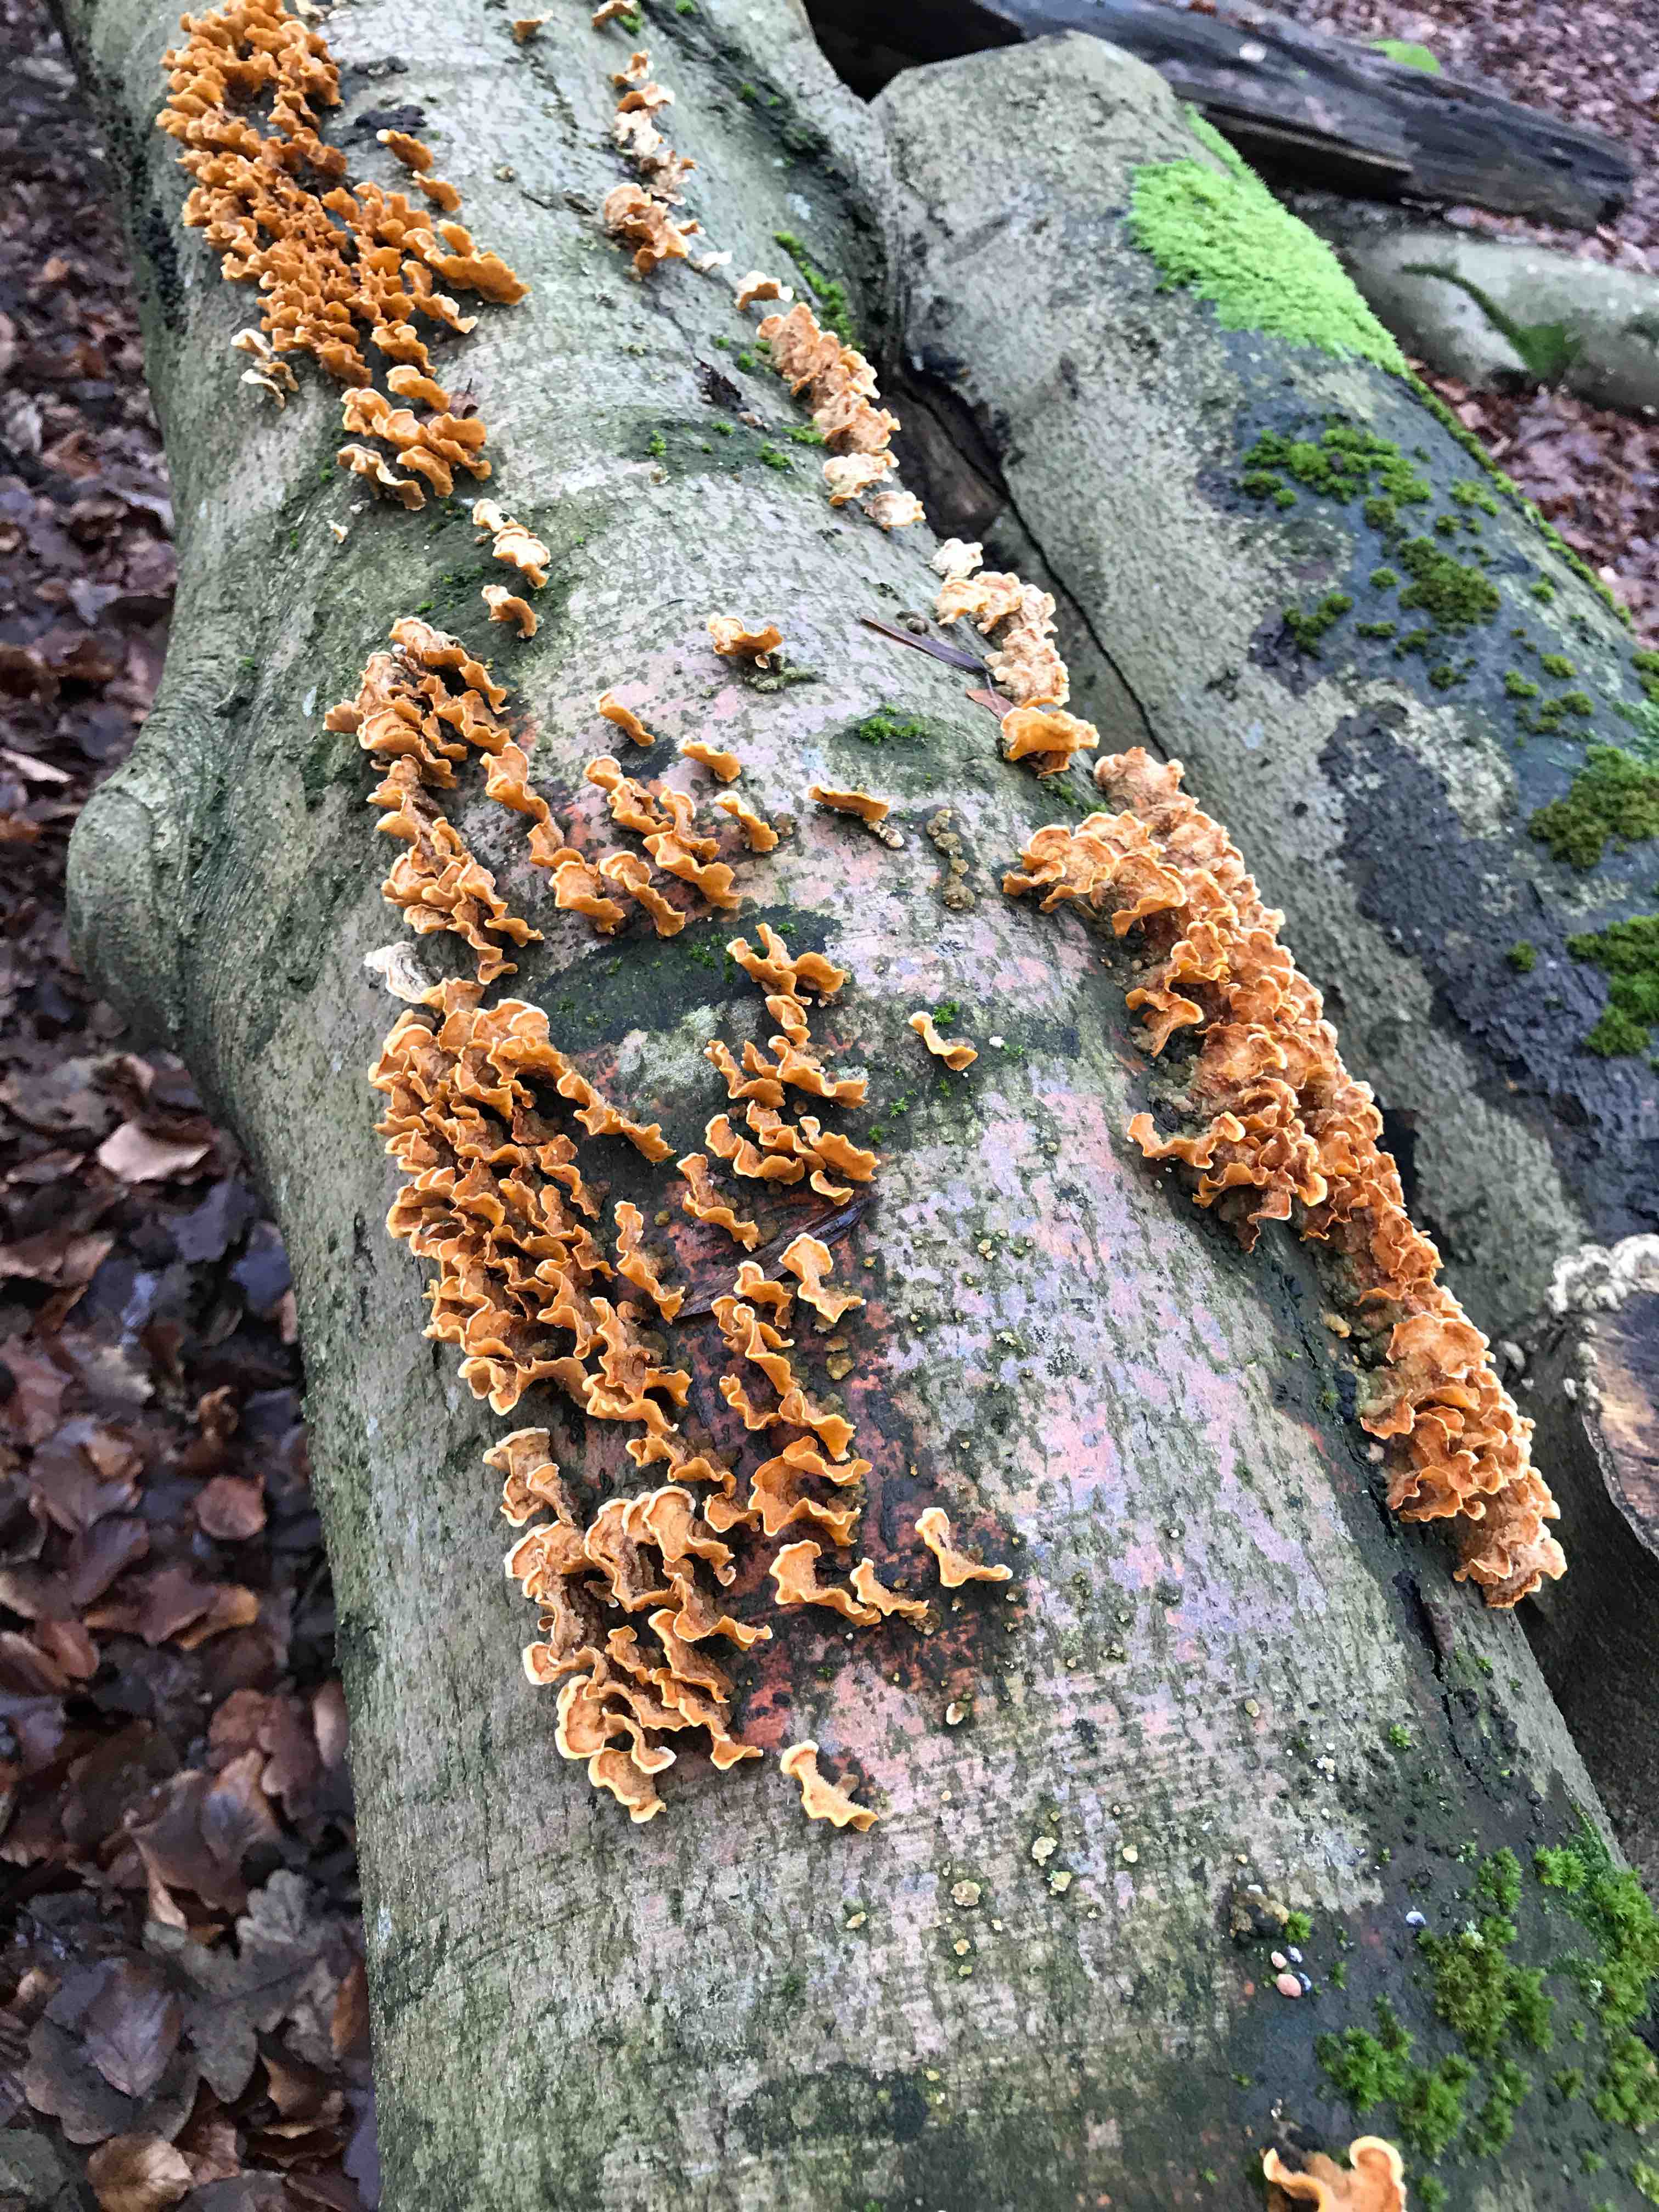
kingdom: Fungi
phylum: Basidiomycota
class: Agaricomycetes
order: Russulales
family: Stereaceae
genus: Stereum
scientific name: Stereum hirsutum
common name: håret lædersvamp
